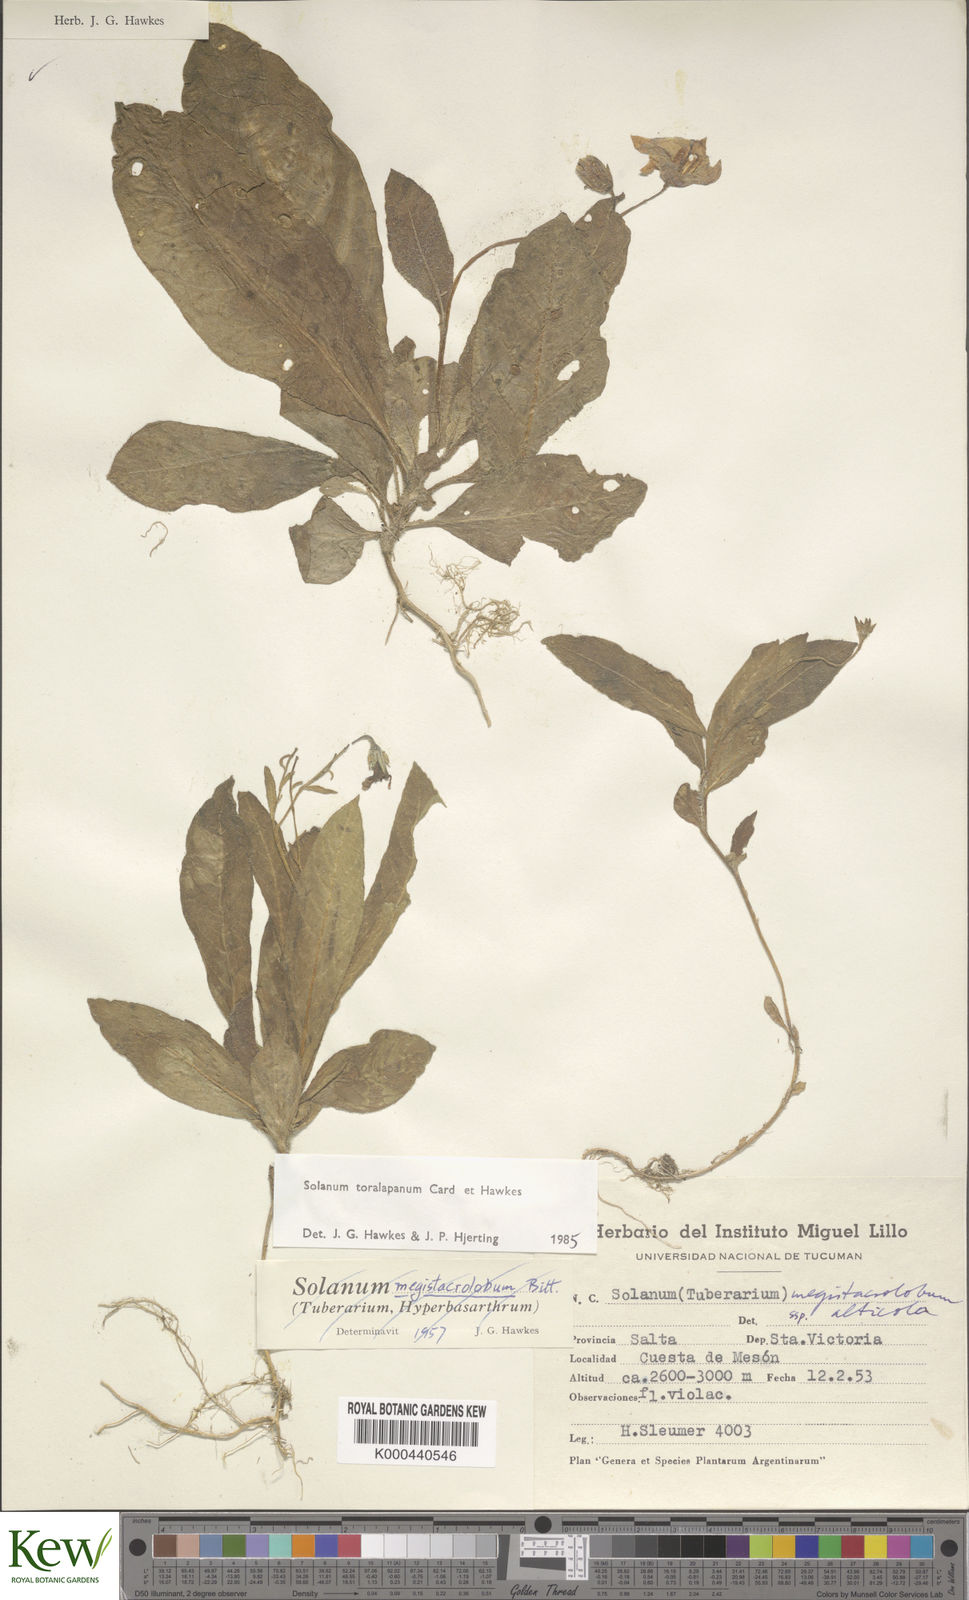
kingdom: Plantae
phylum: Tracheophyta
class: Magnoliopsida
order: Solanales
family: Solanaceae
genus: Solanum
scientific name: Solanum
